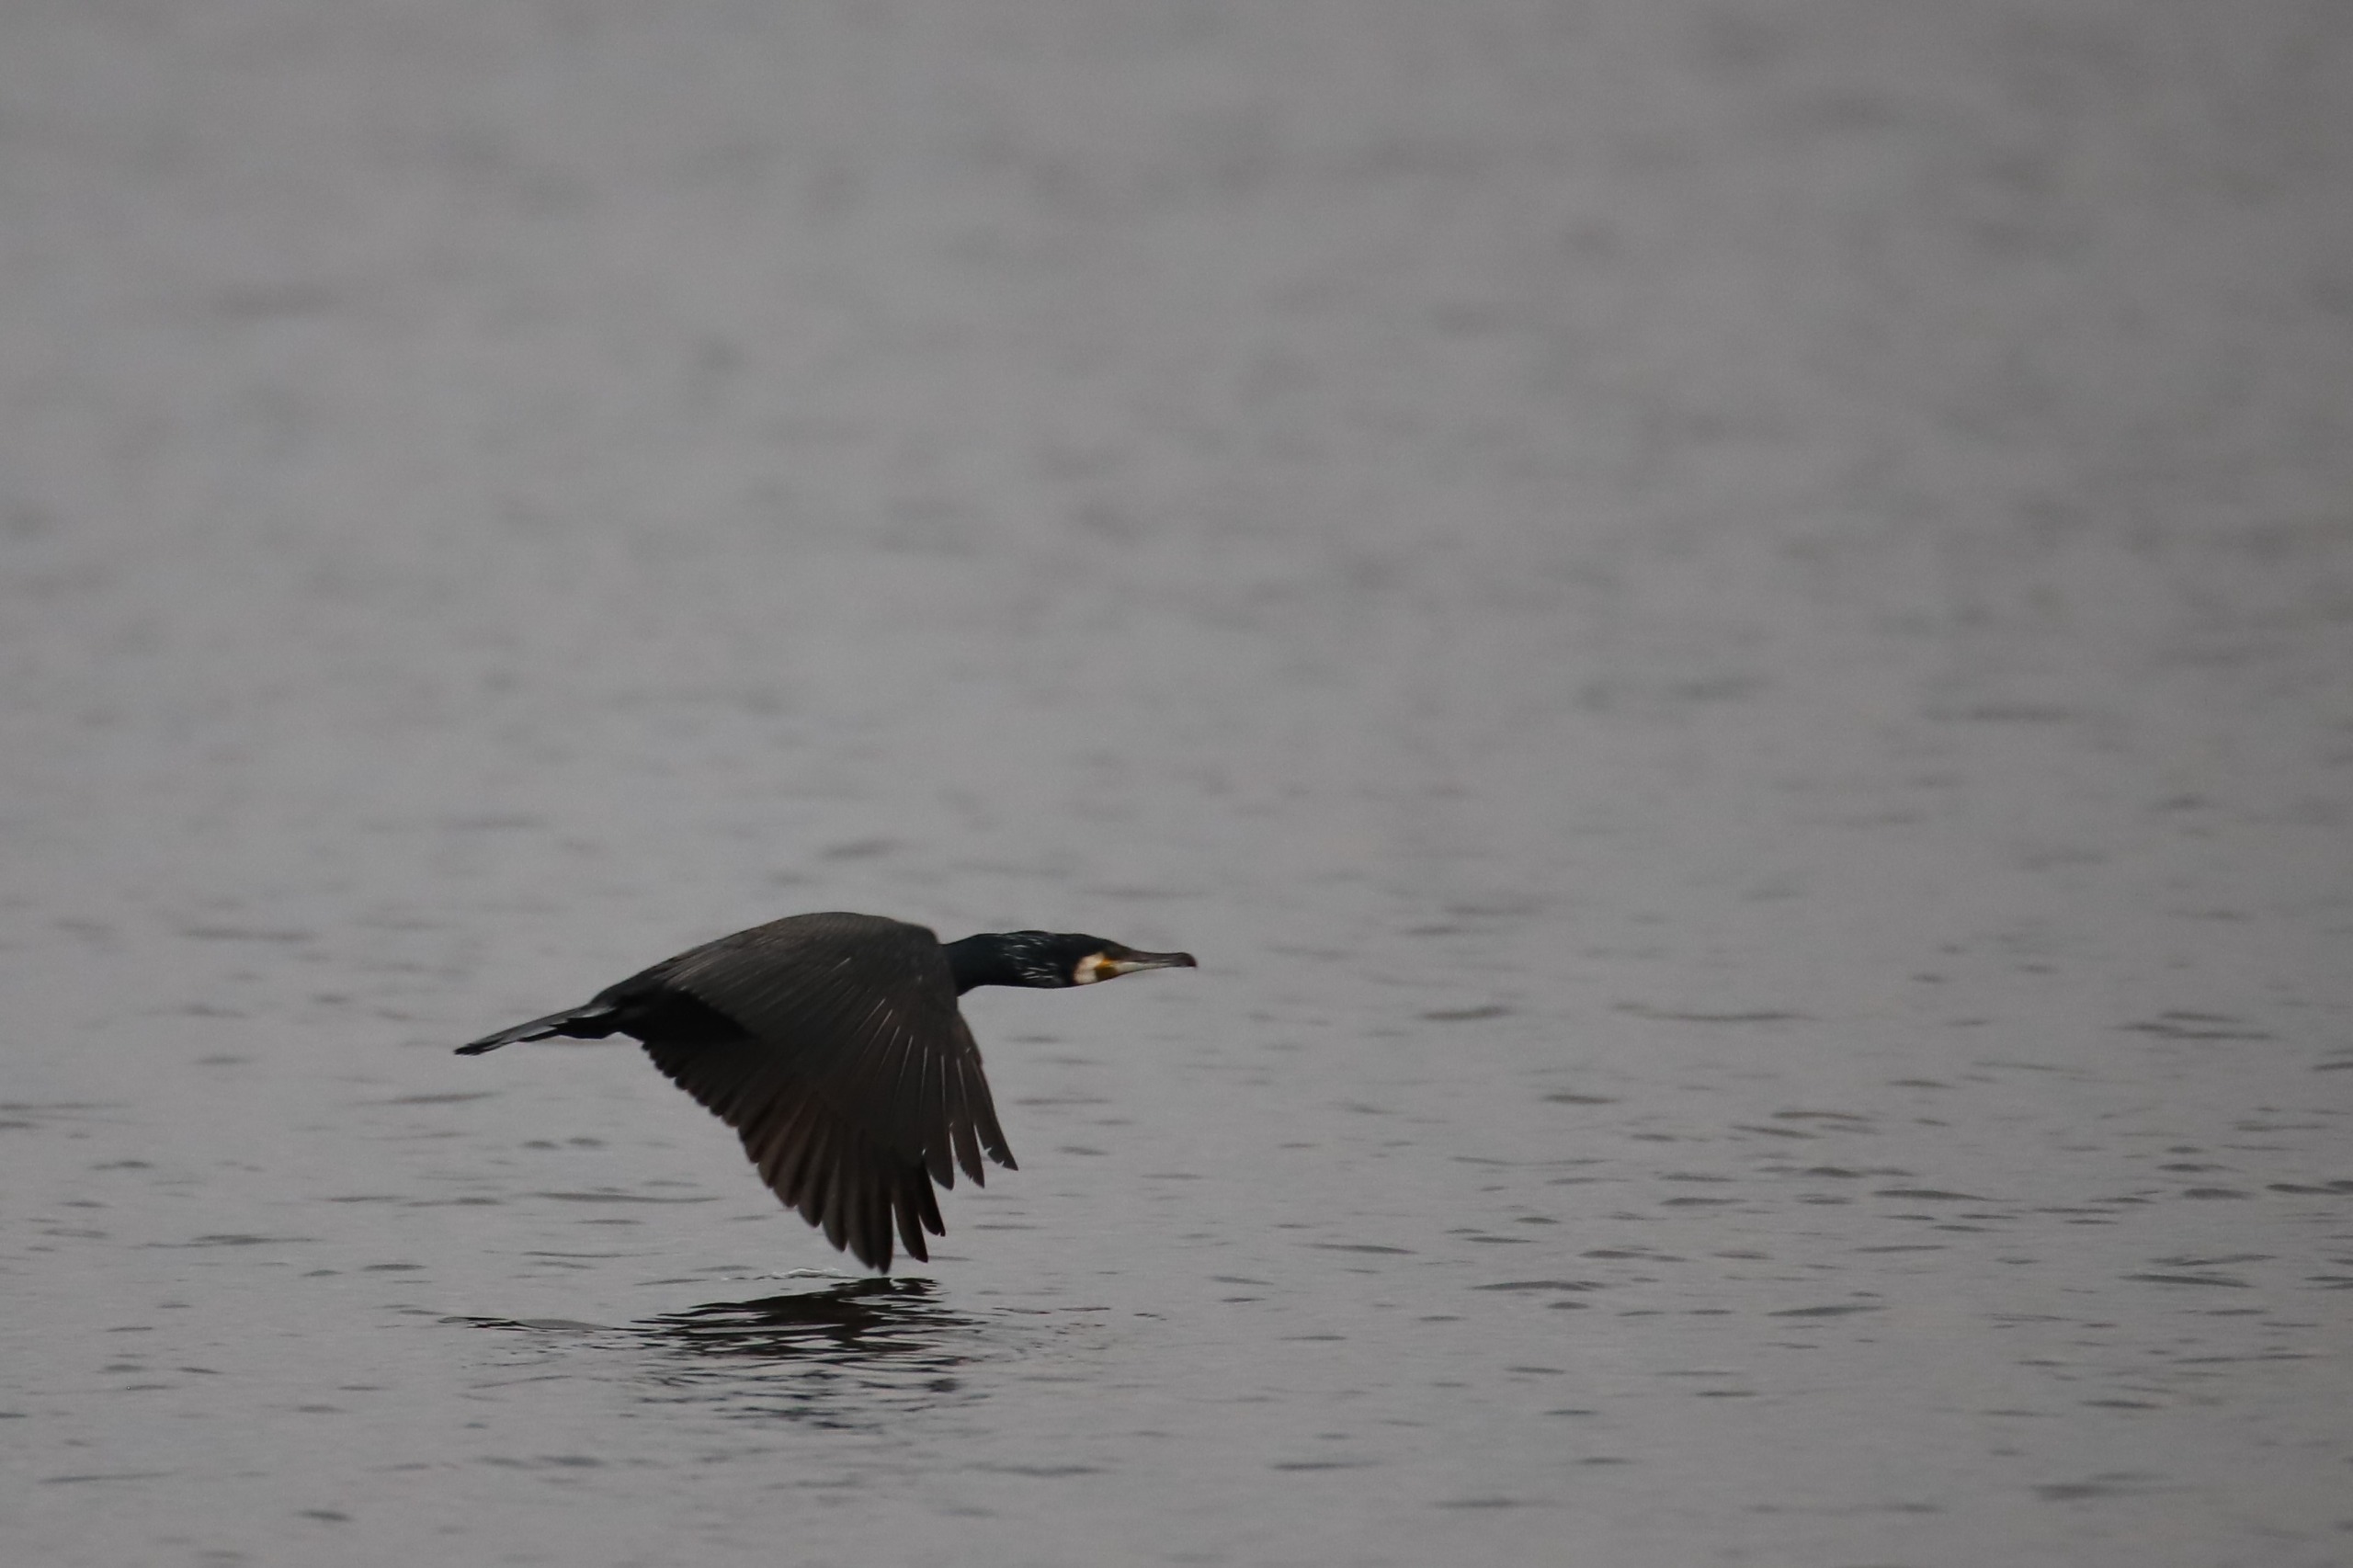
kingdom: Animalia
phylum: Chordata
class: Aves
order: Suliformes
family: Phalacrocoracidae
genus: Phalacrocorax
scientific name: Phalacrocorax carbo
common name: Skarv
